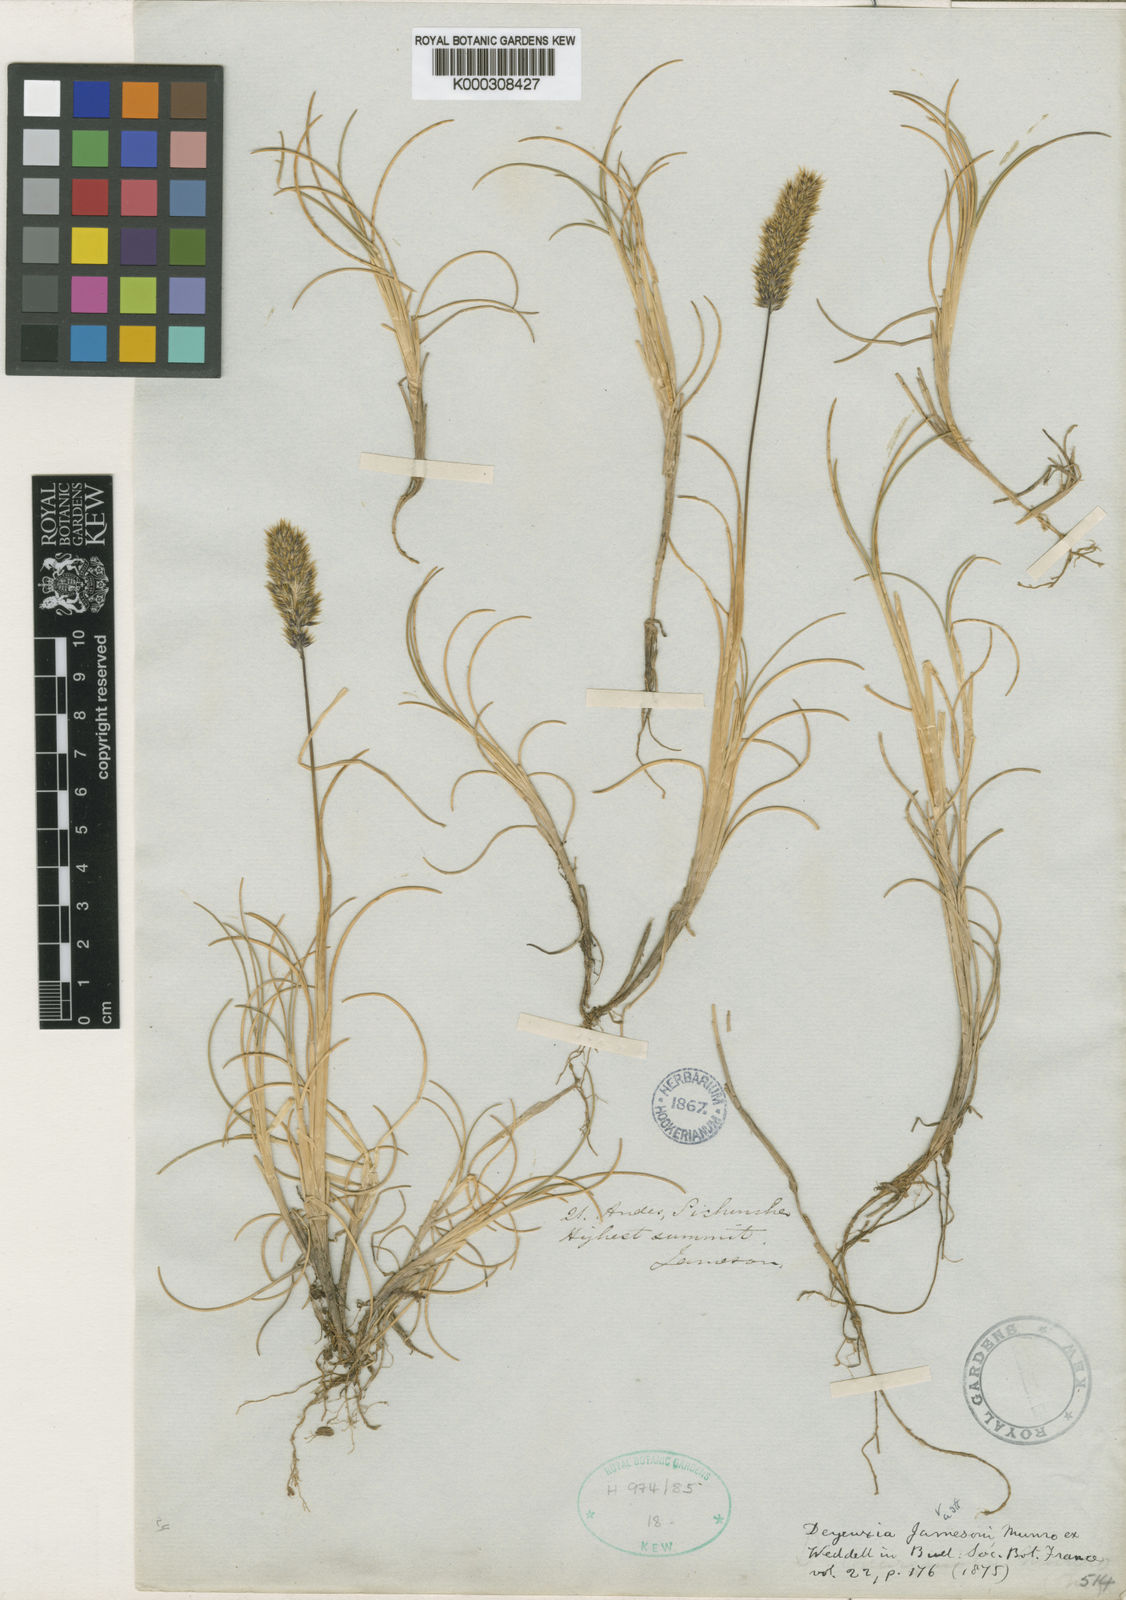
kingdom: Plantae
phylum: Tracheophyta
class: Liliopsida
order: Poales
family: Poaceae
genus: Cinnagrostis
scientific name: Cinnagrostis jamesonii
